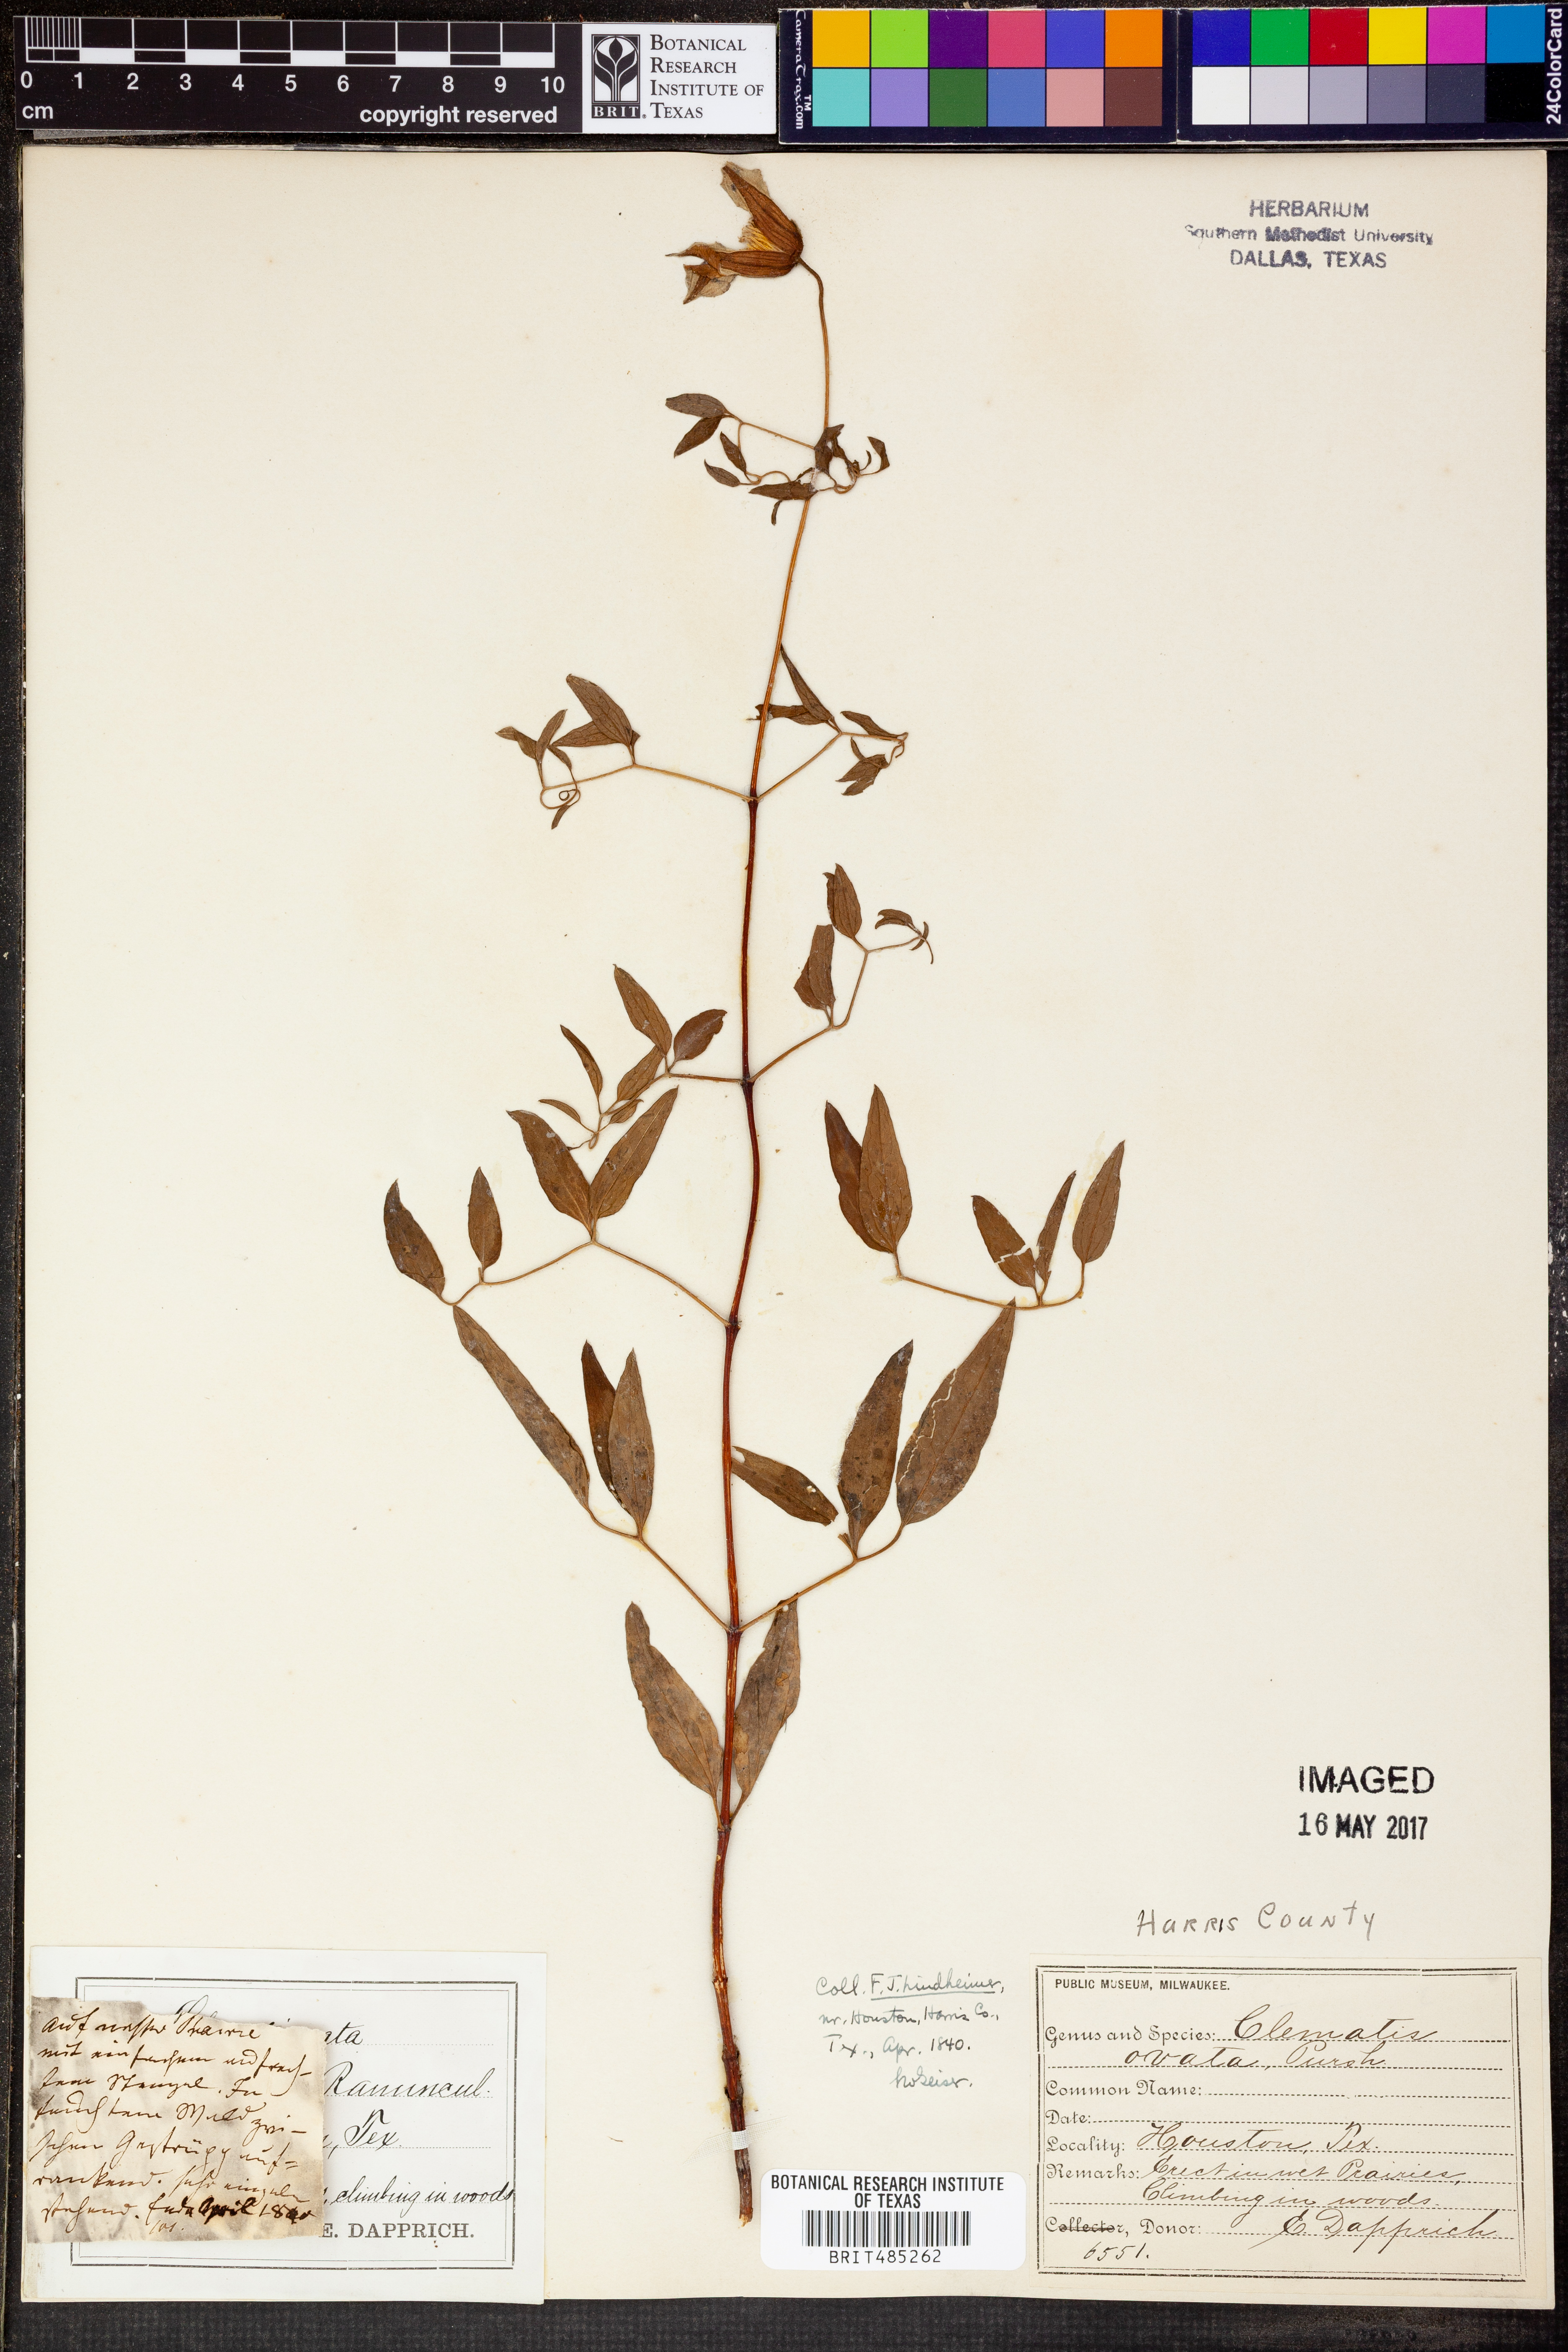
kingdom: Plantae
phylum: Tracheophyta
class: Magnoliopsida
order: Ranunculales
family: Ranunculaceae
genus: Clematis
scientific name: Clematis ochroleuca
